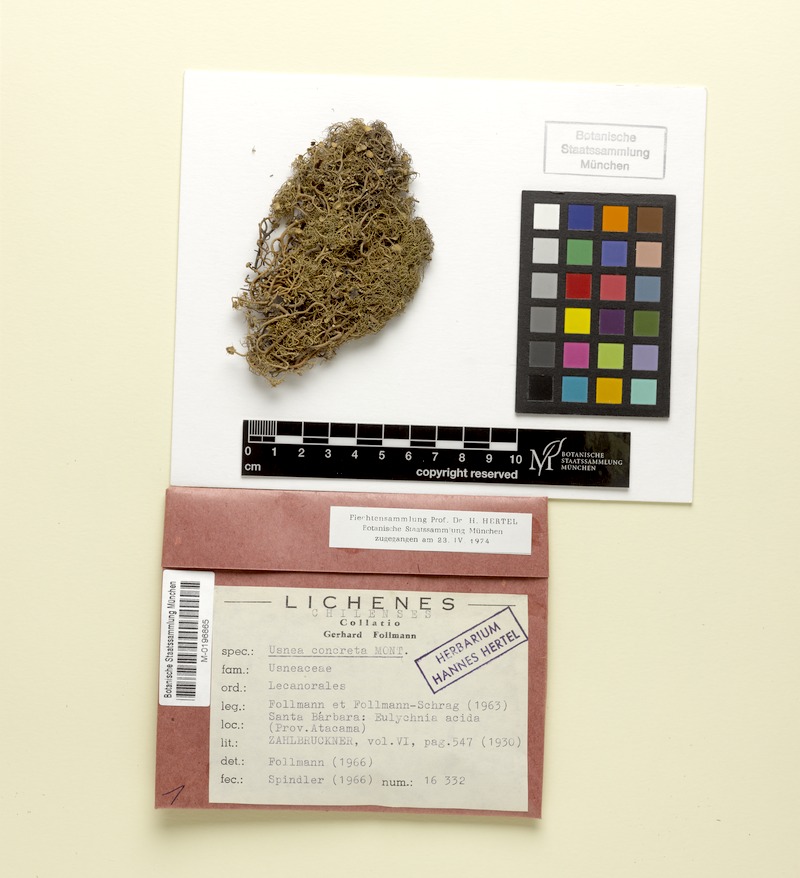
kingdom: Fungi
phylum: Ascomycota
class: Lecanoromycetes
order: Lecanorales
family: Parmeliaceae
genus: Usnea
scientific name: Usnea
